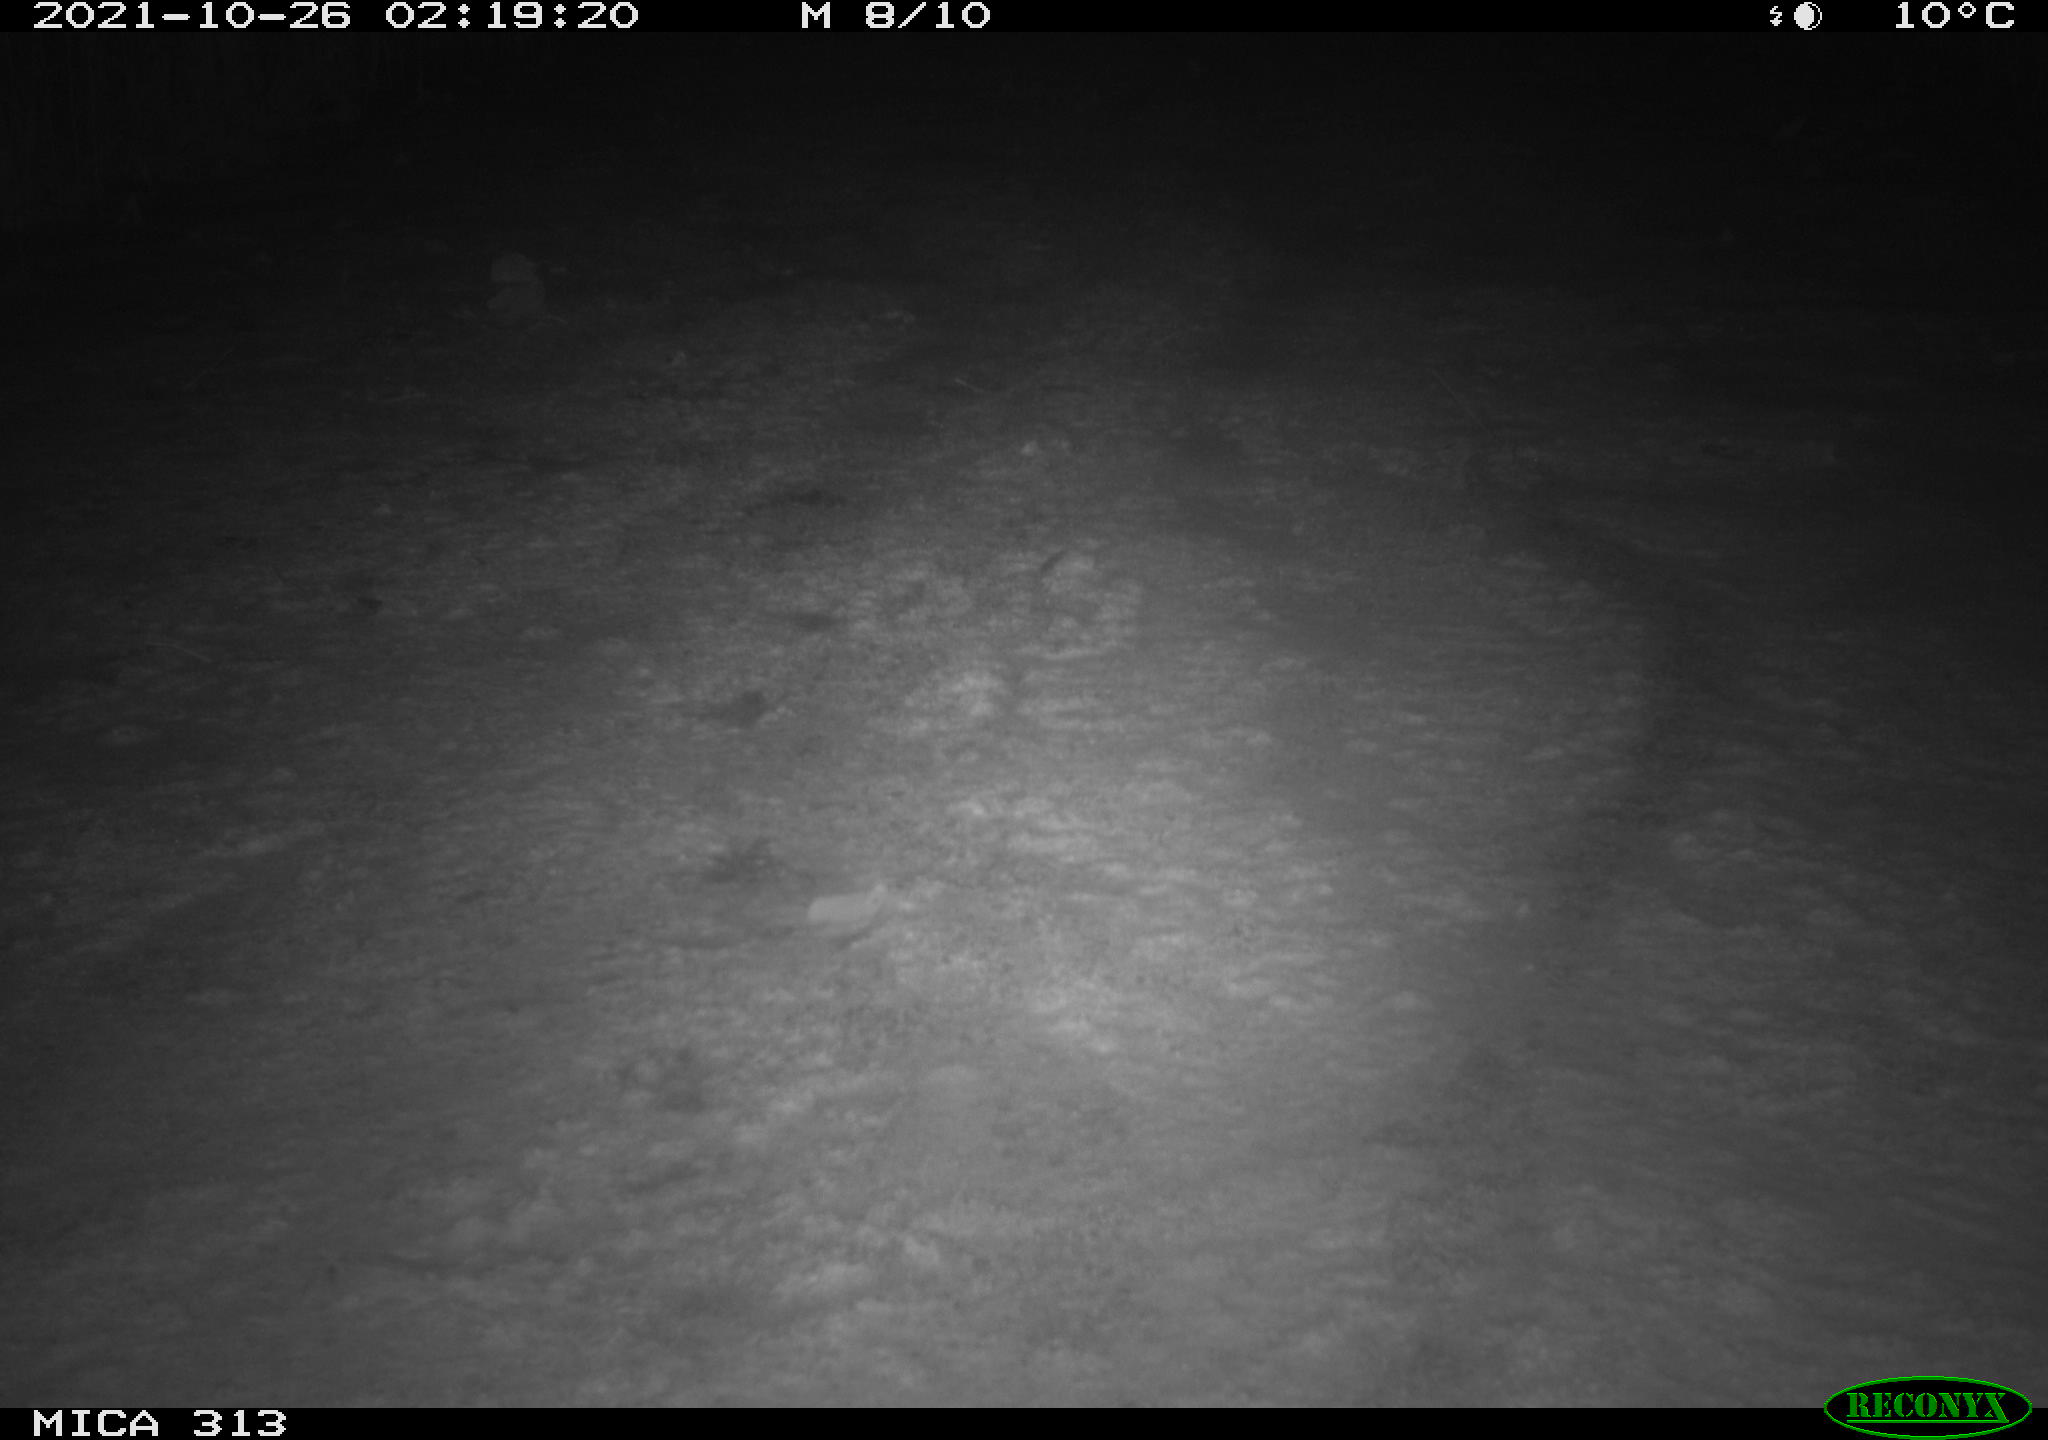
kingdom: Animalia
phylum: Chordata
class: Aves
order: Gruiformes
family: Rallidae
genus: Fulica
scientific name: Fulica atra
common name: Eurasian coot
